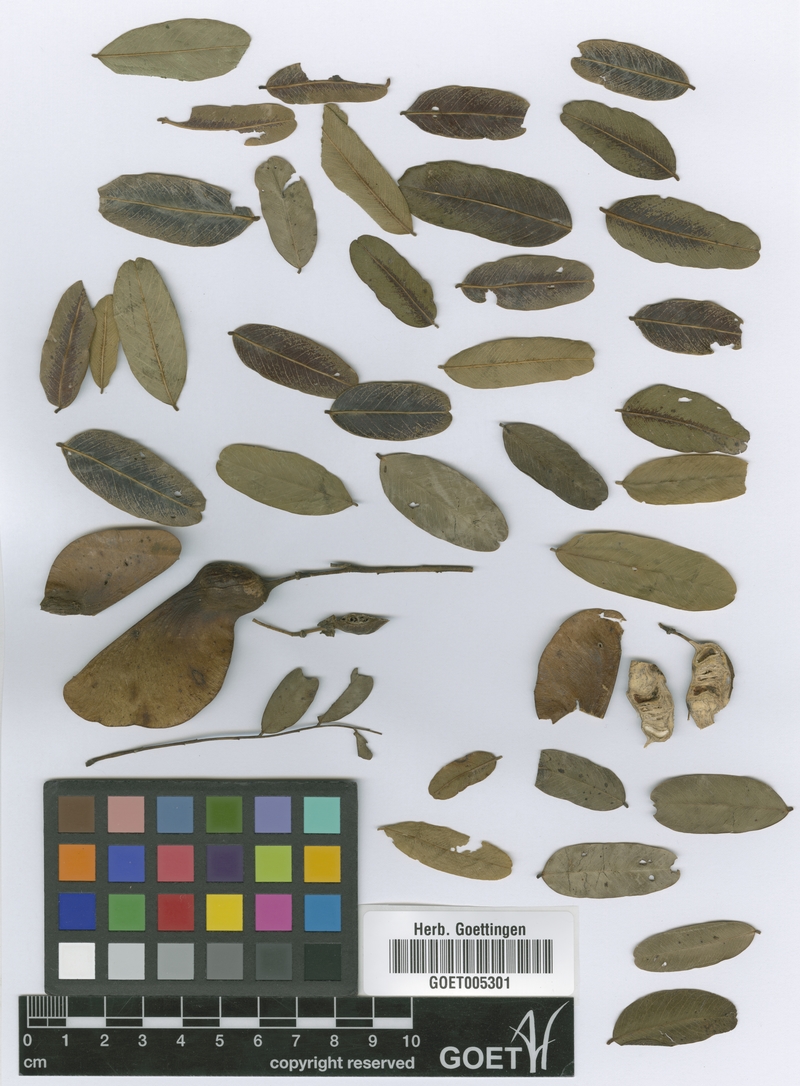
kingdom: Plantae
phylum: Tracheophyta
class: Magnoliopsida
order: Fabales
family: Fabaceae
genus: Tipuana
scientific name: Tipuana tipu
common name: Tiputree
